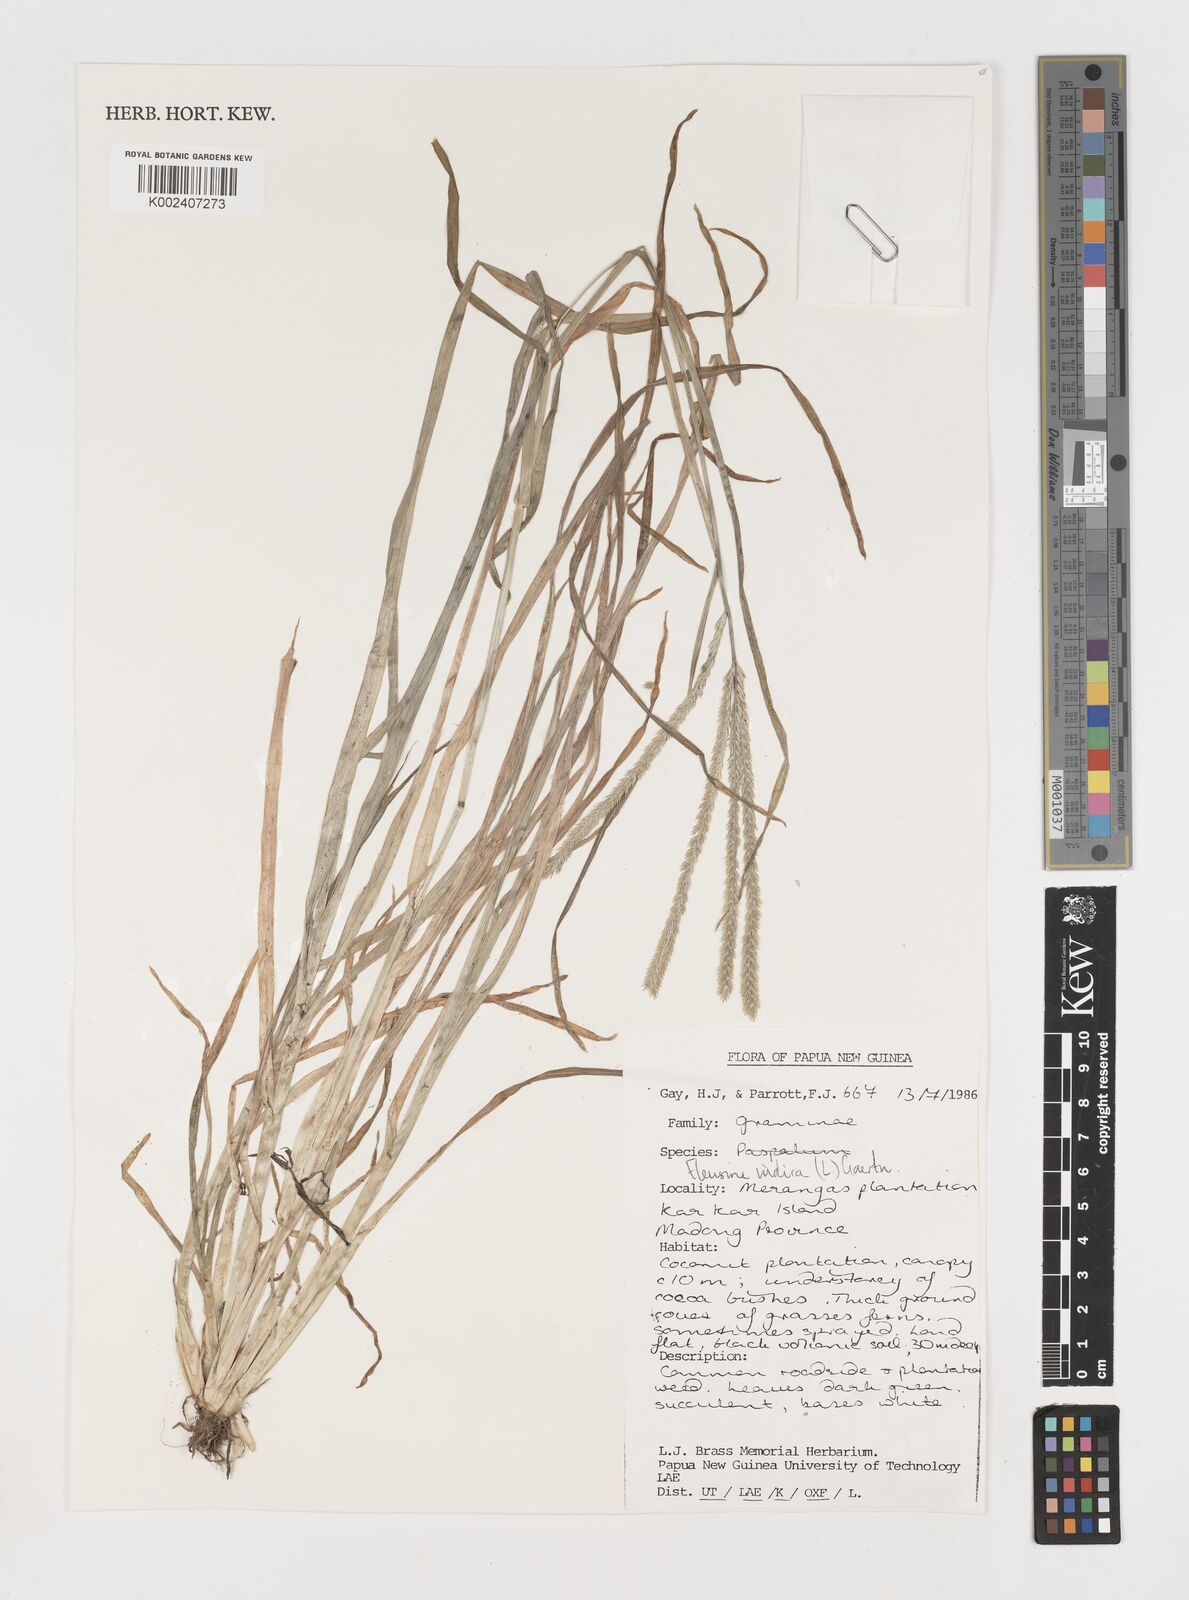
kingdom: Plantae
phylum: Tracheophyta
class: Liliopsida
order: Poales
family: Poaceae
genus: Eleusine
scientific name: Eleusine indica
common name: Yard-grass
